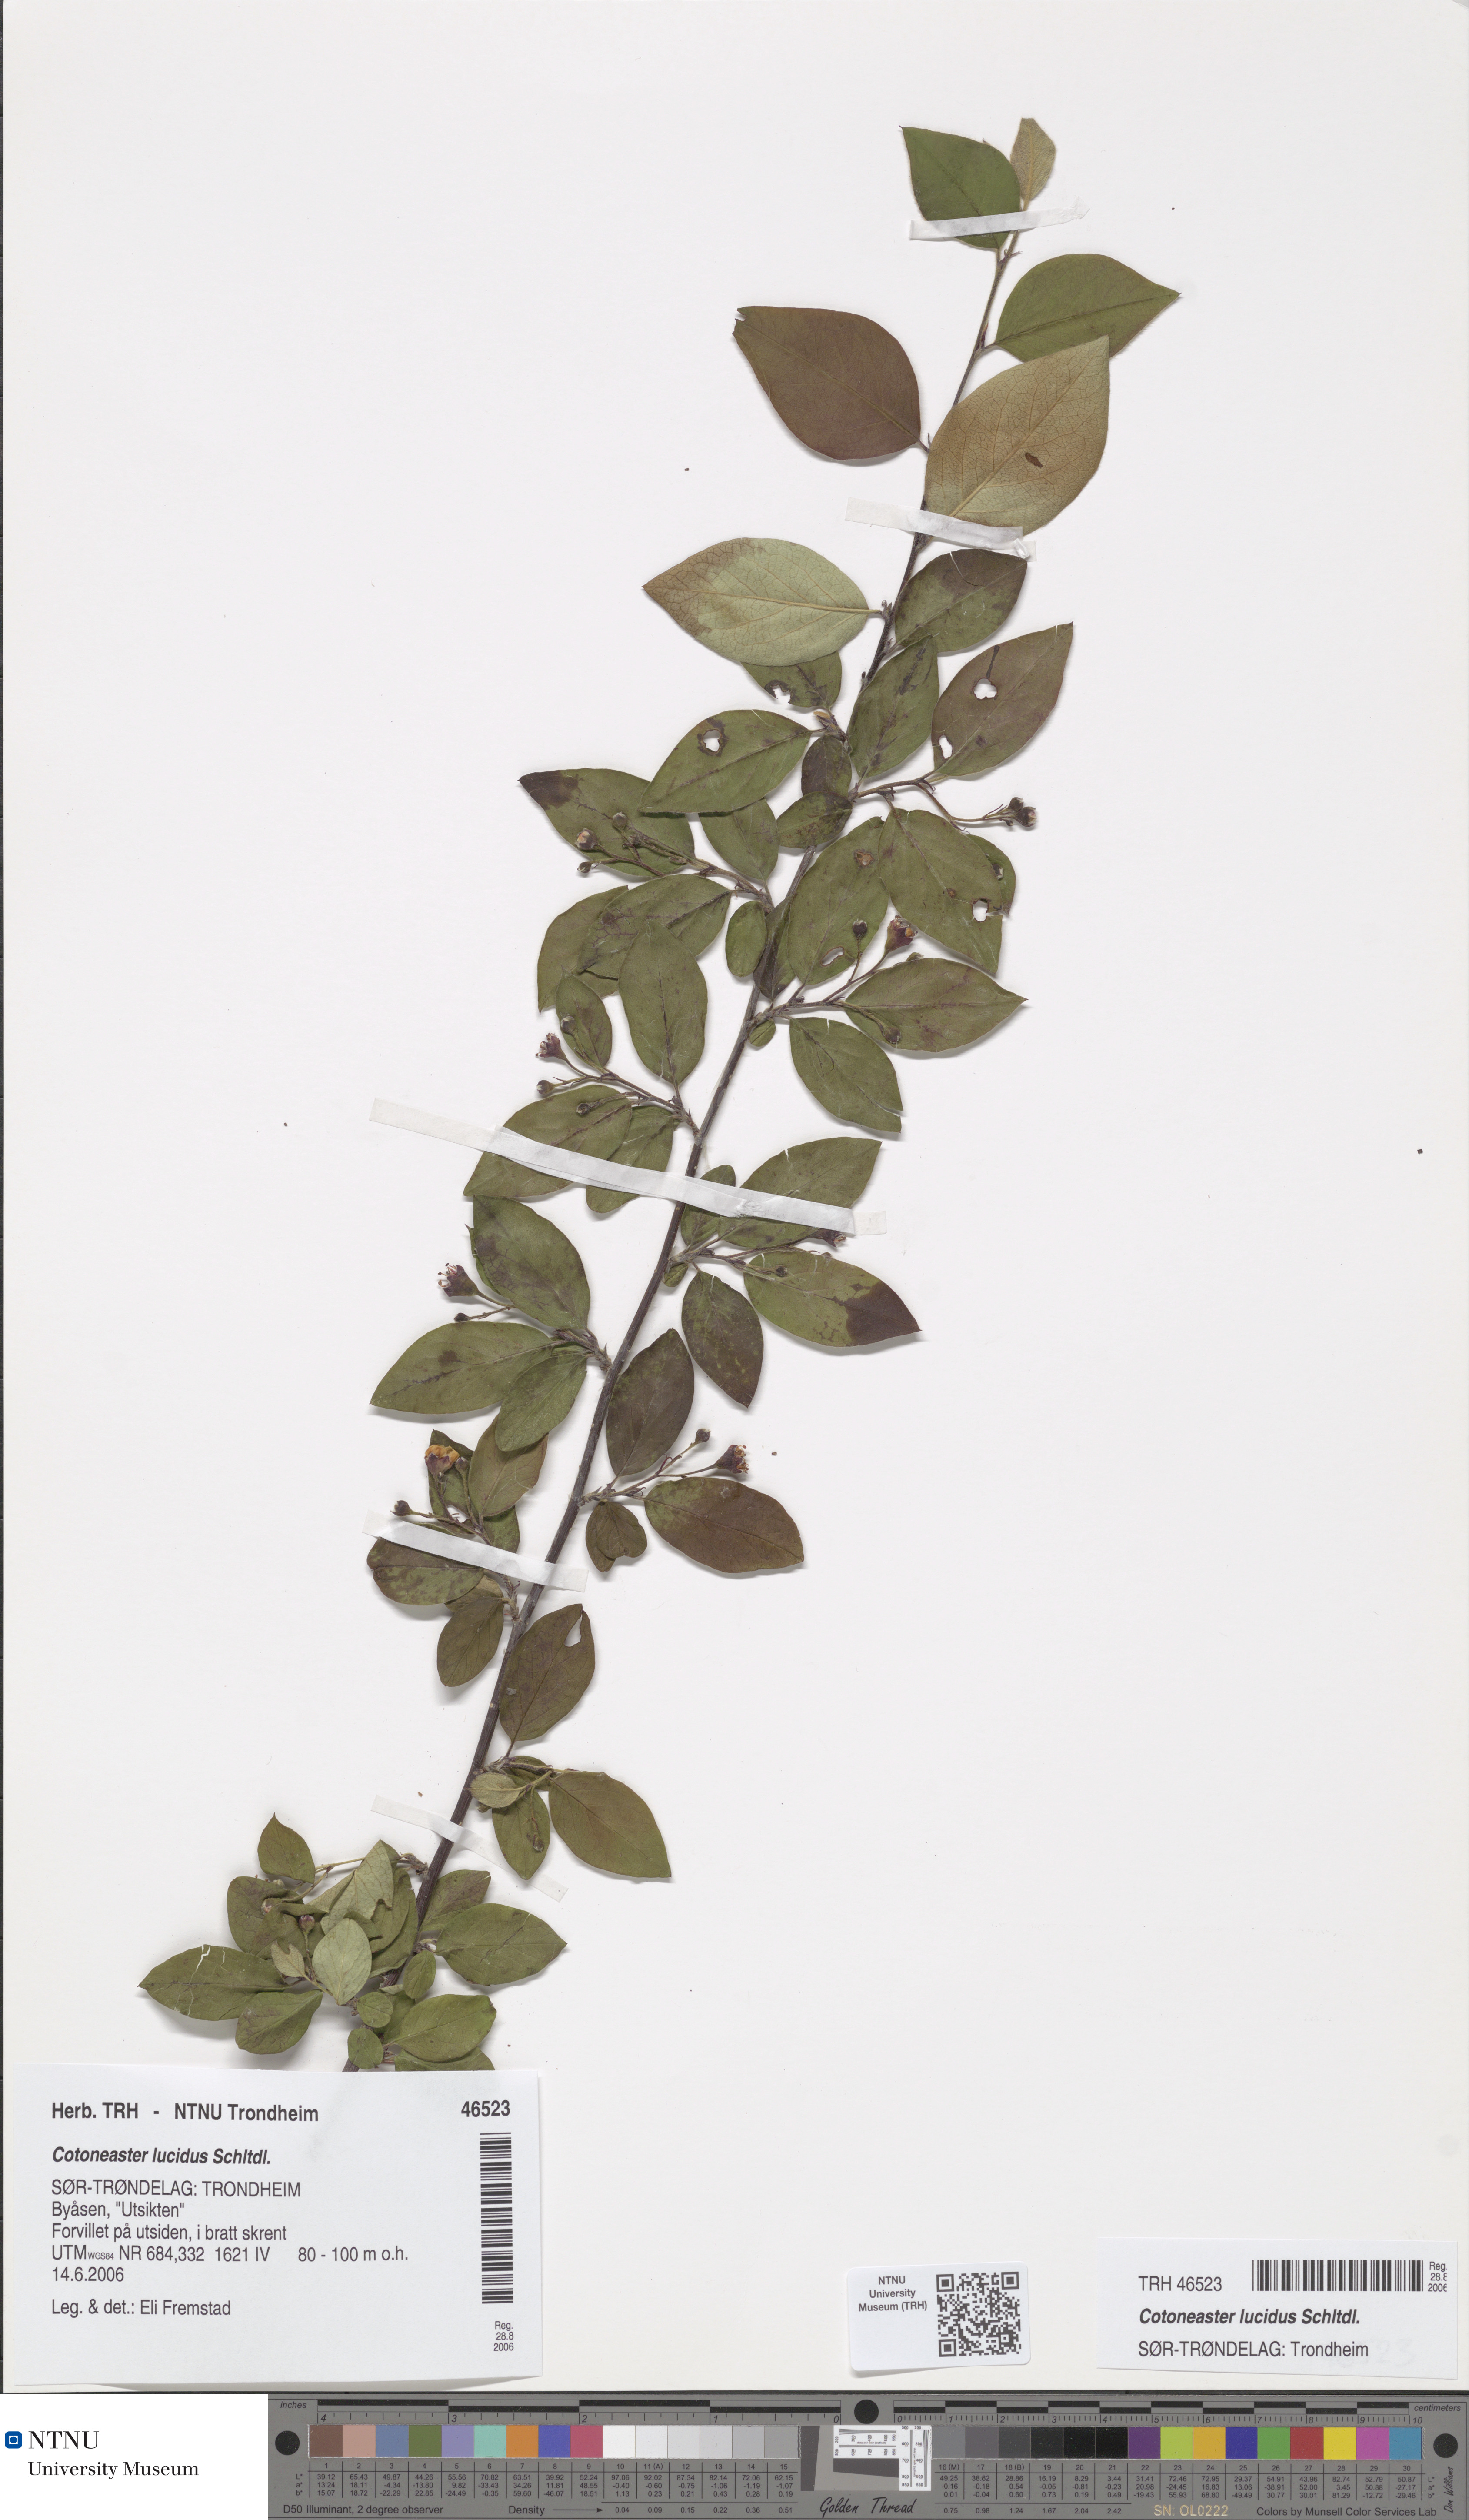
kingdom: Plantae
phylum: Tracheophyta
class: Magnoliopsida
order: Rosales
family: Rosaceae
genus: Cotoneaster
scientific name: Cotoneaster acutifolius
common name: Peking cotoneaster
